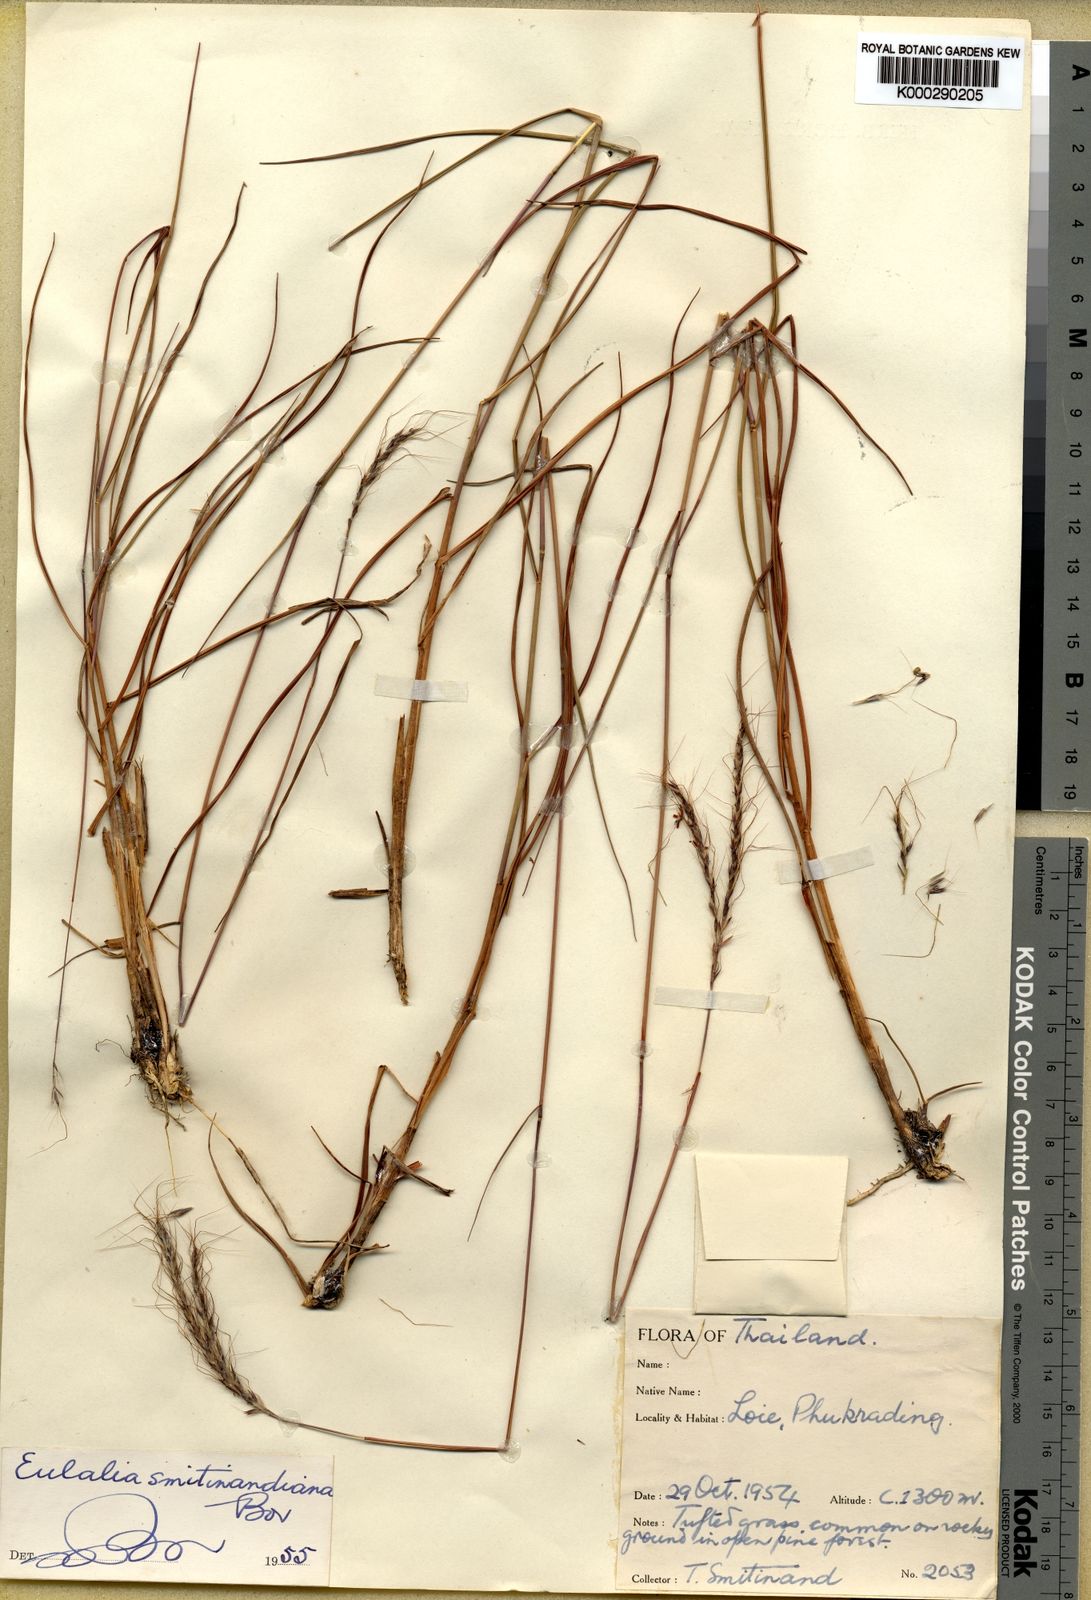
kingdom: Plantae
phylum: Tracheophyta
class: Liliopsida
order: Poales
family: Poaceae
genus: Eulalia
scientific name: Eulalia smitinandiana
